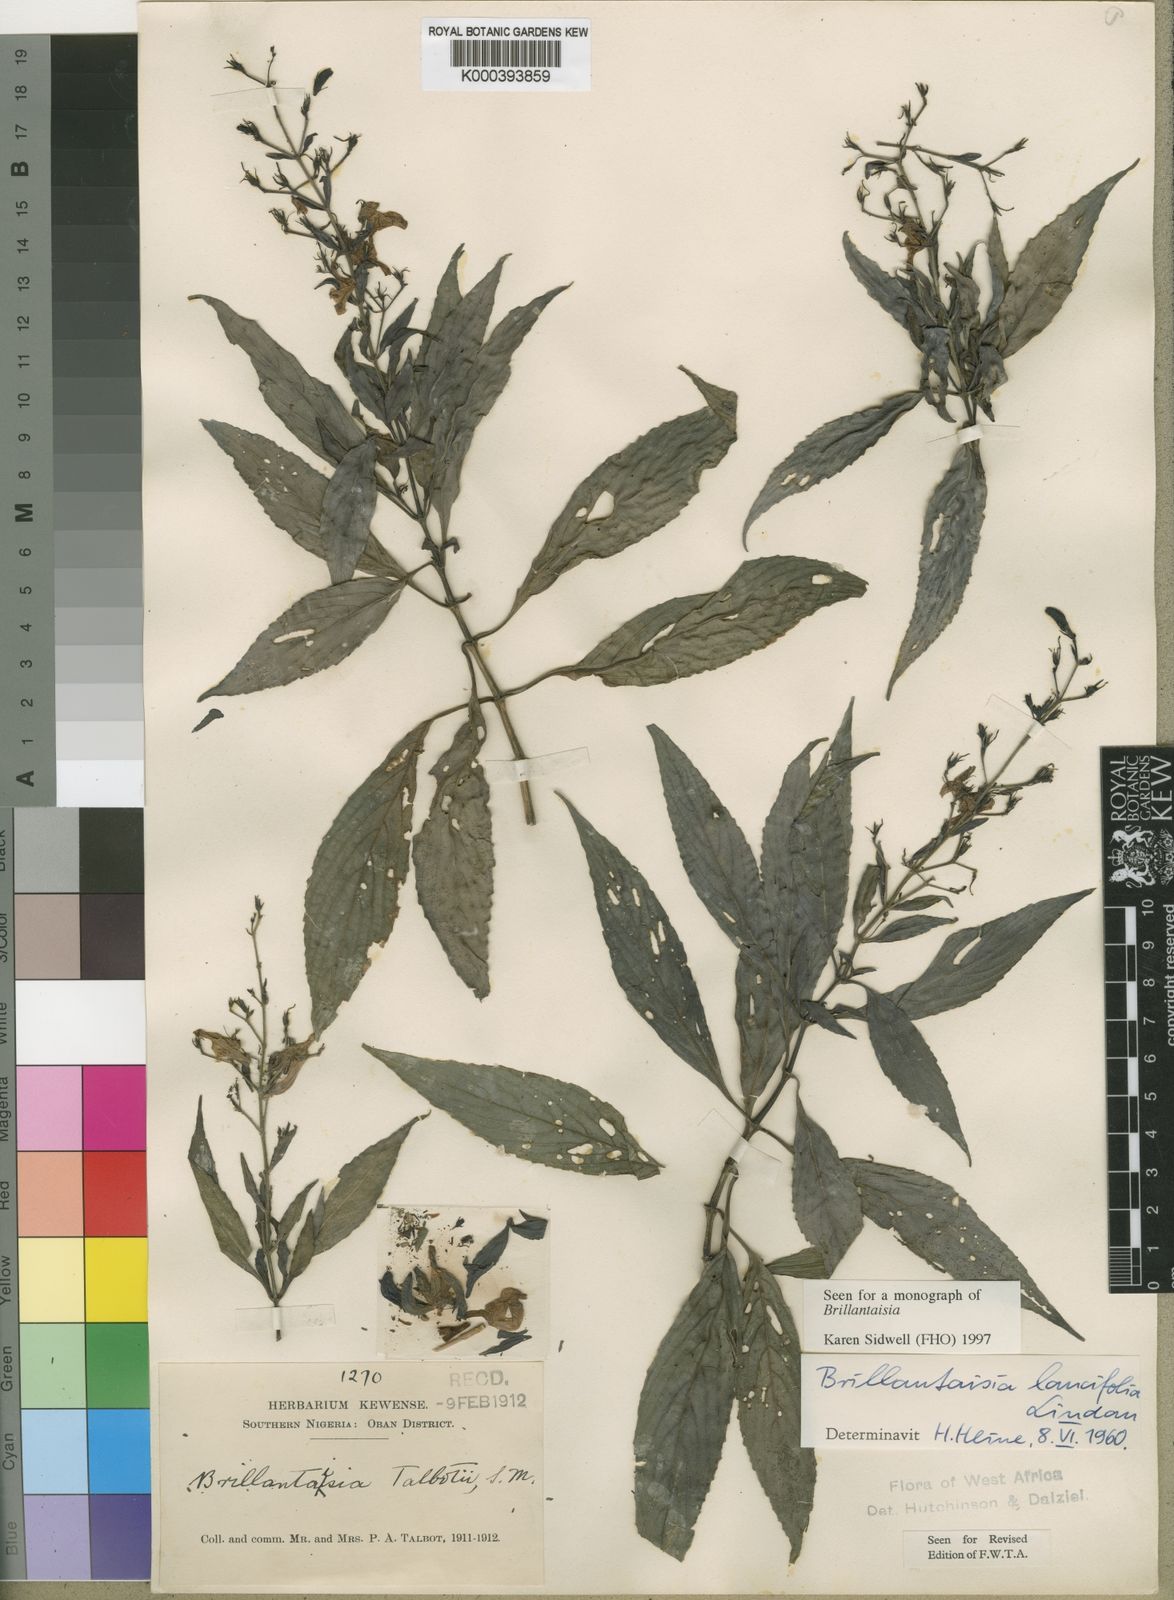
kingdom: Plantae
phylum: Tracheophyta
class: Magnoliopsida
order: Lamiales
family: Acanthaceae
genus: Brillantaisia
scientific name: Brillantaisia lancifolia
